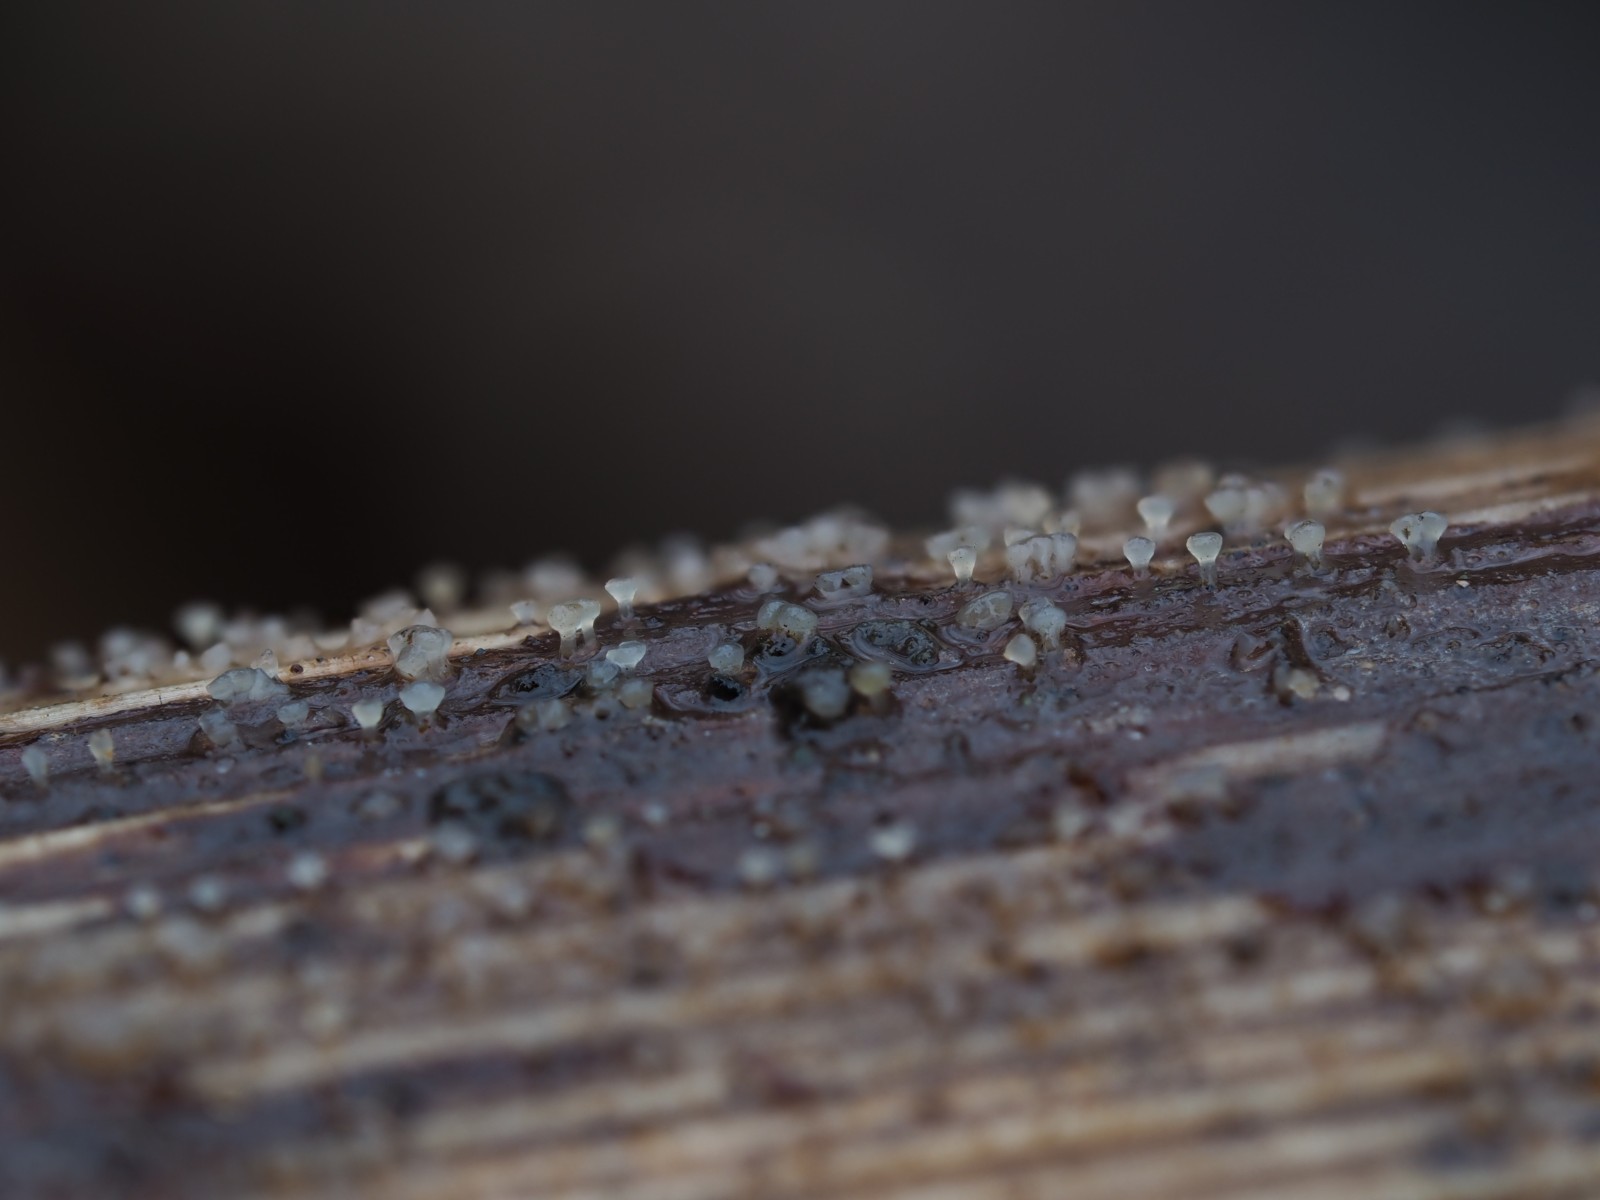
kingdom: Fungi
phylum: Ascomycota
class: Leotiomycetes
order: Helotiales
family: Pezizellaceae
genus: Allophylaria
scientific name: Allophylaria
